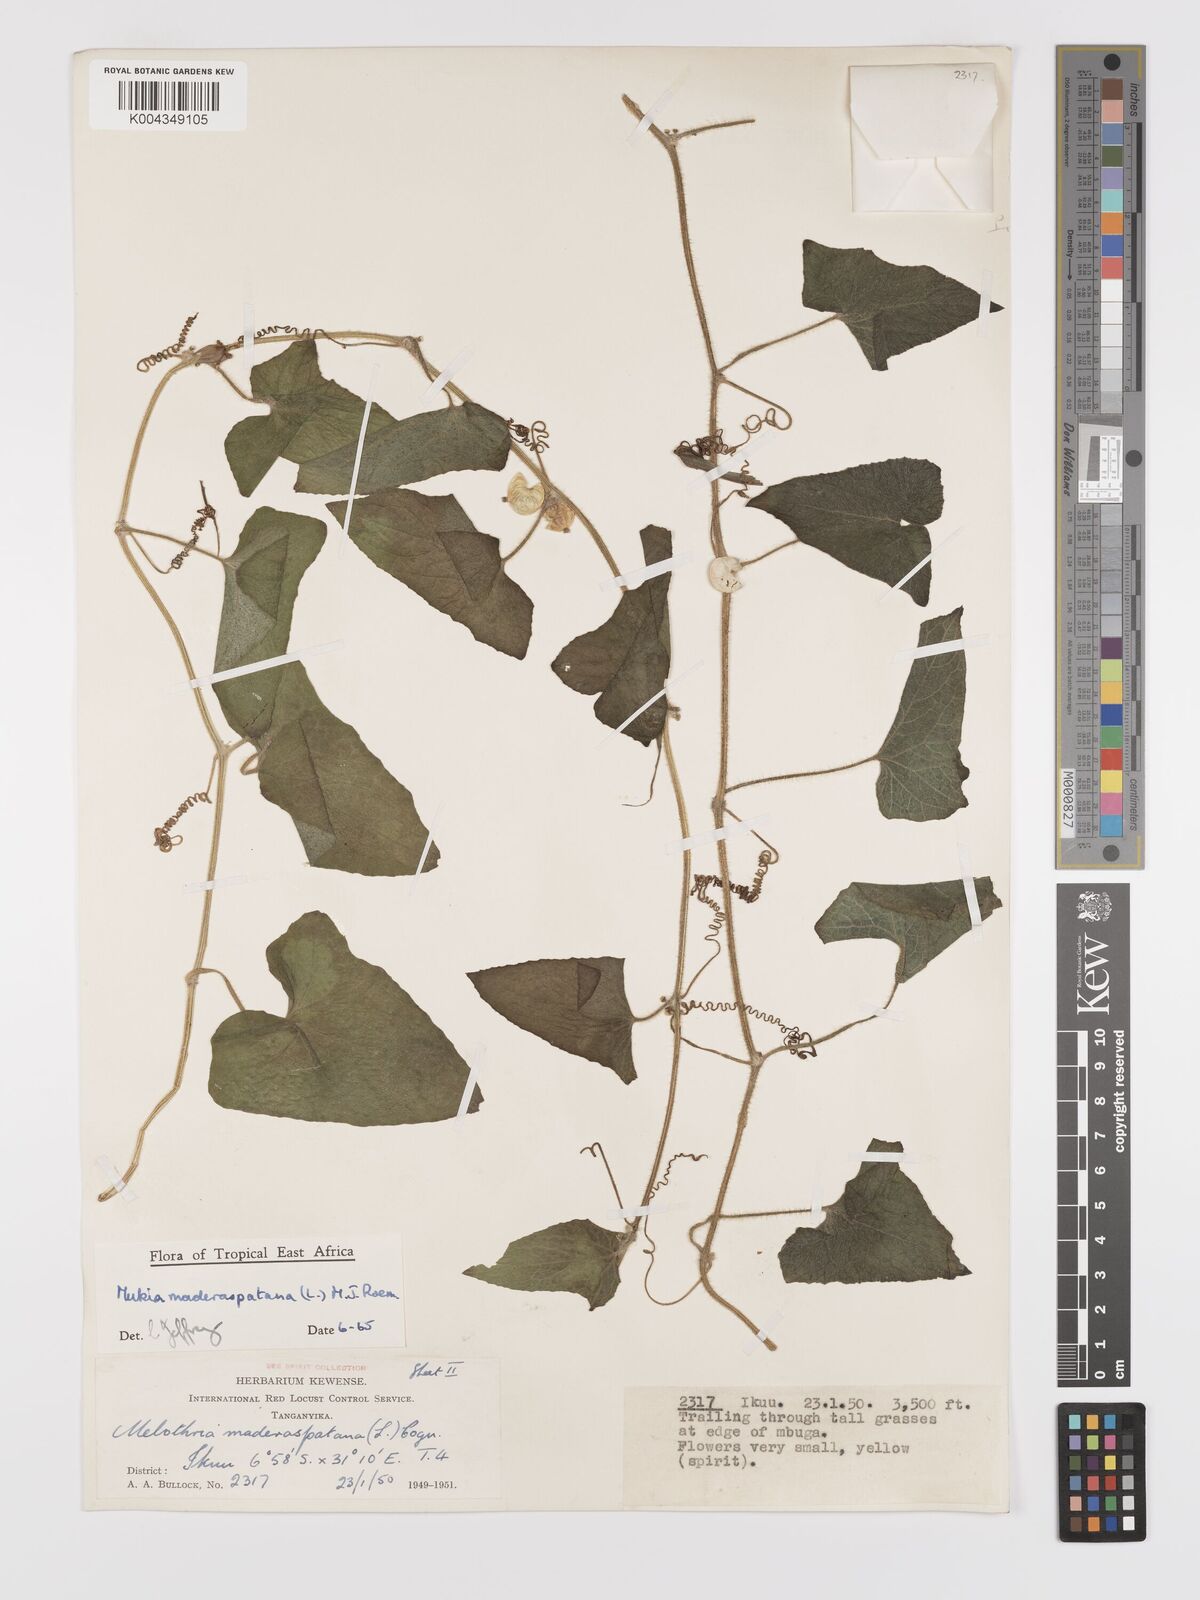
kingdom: Plantae
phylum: Tracheophyta
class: Magnoliopsida
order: Cucurbitales
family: Cucurbitaceae
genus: Cucumis
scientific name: Cucumis maderaspatanus
